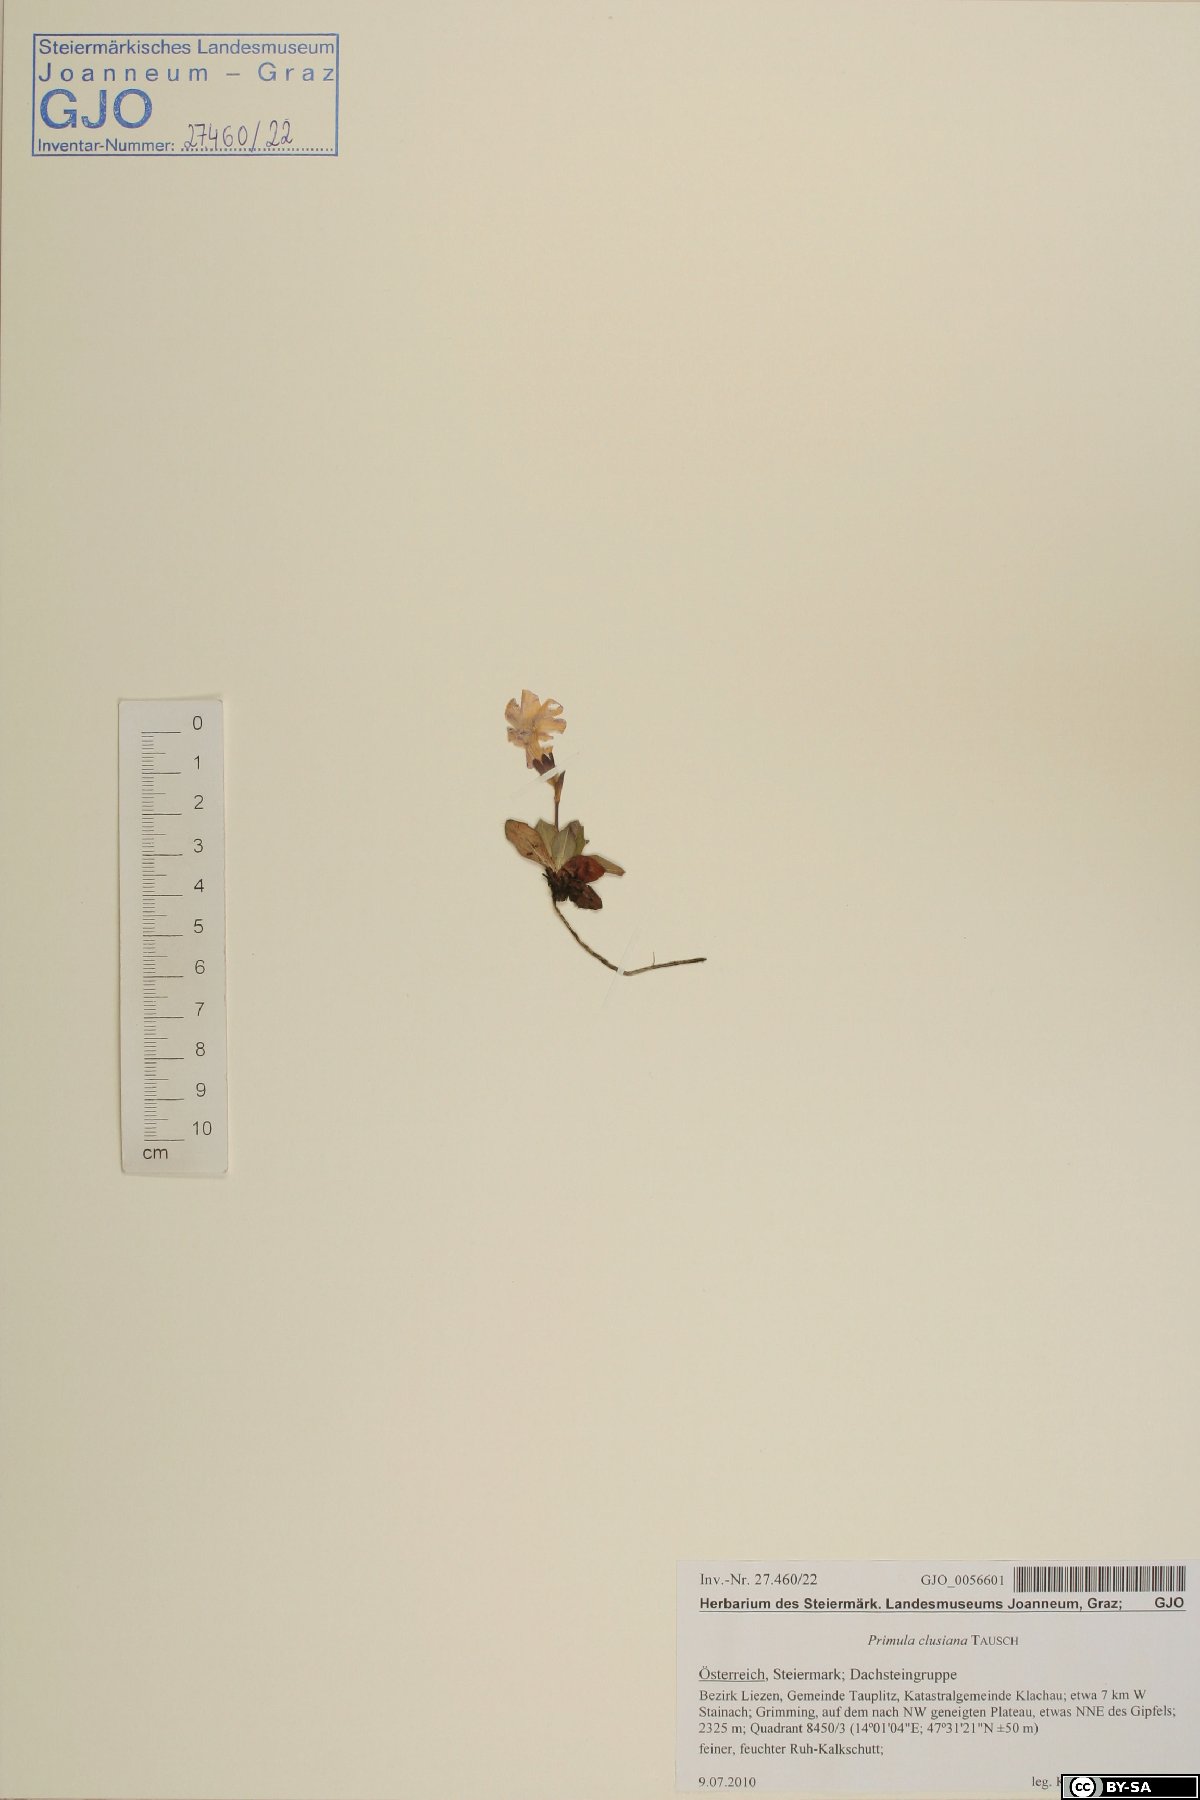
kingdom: Plantae
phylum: Tracheophyta
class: Magnoliopsida
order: Ericales
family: Primulaceae
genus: Primula
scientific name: Primula clusiana
